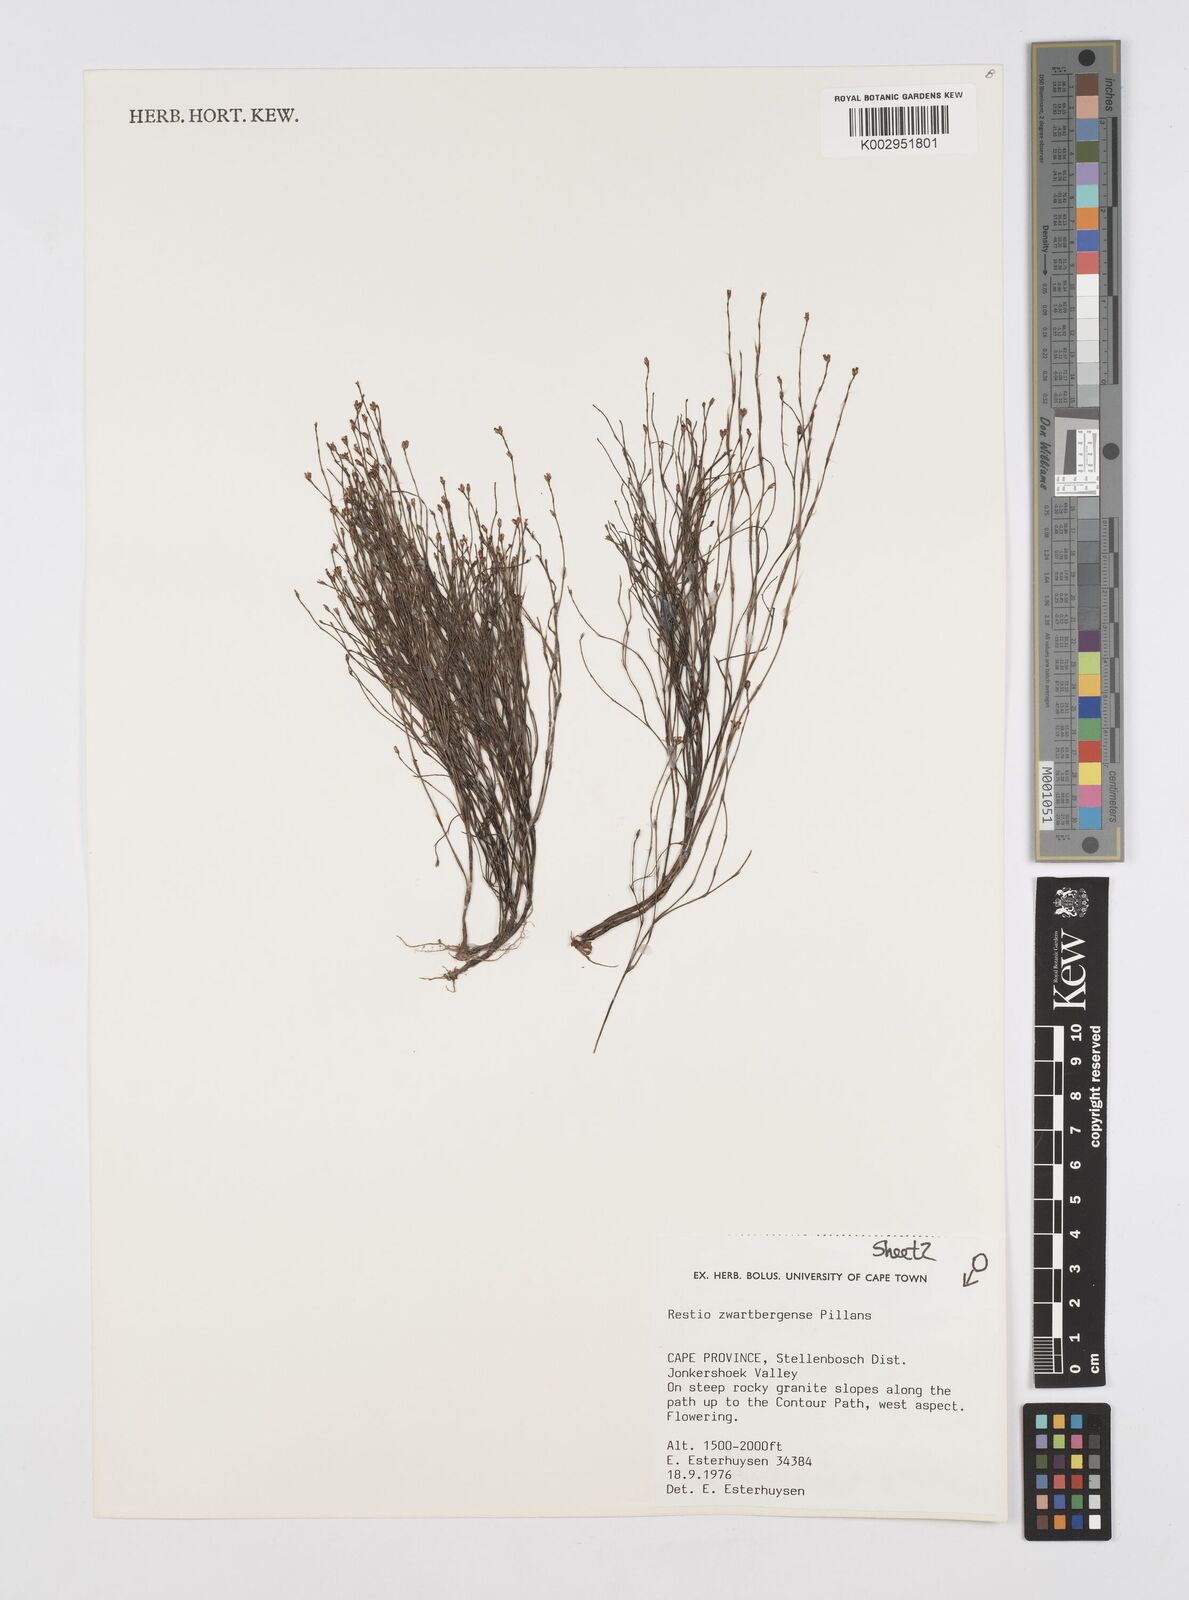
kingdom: Plantae
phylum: Tracheophyta
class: Liliopsida
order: Poales
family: Restionaceae
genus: Restio
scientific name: Restio zwartbergensis
